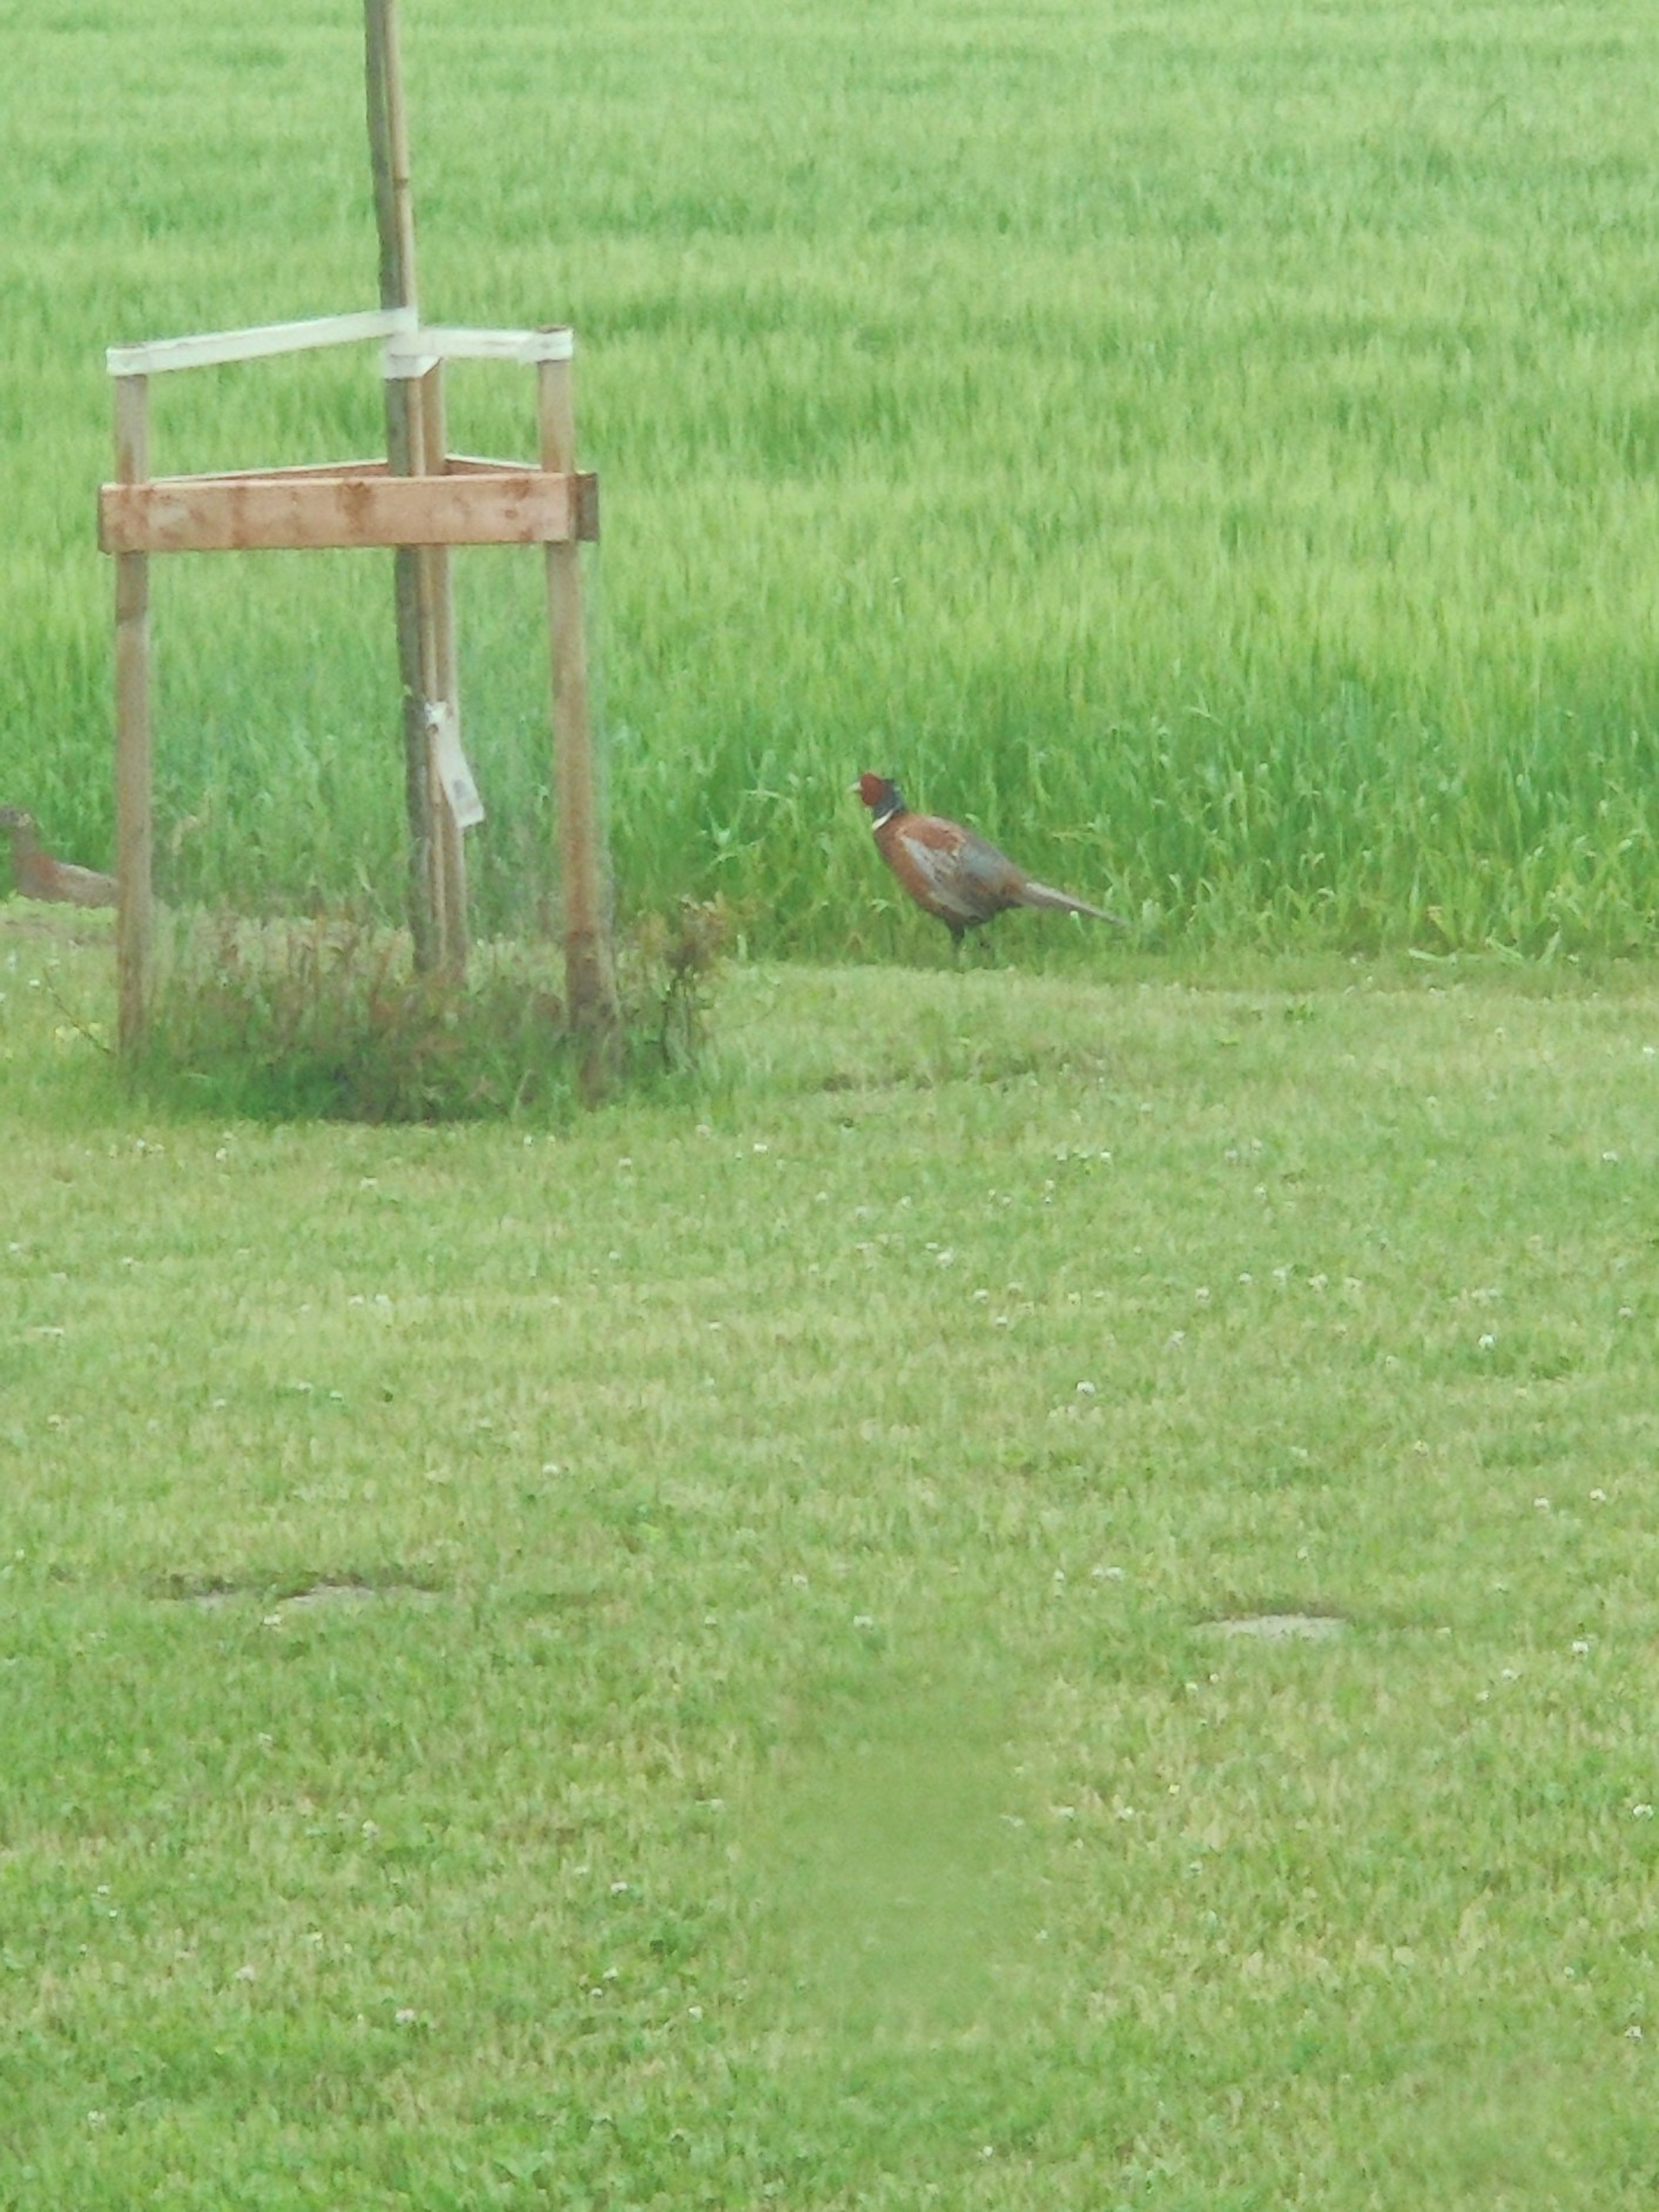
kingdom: Animalia
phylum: Chordata
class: Aves
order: Galliformes
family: Phasianidae
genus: Phasianus
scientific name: Phasianus colchicus
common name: Fasan
